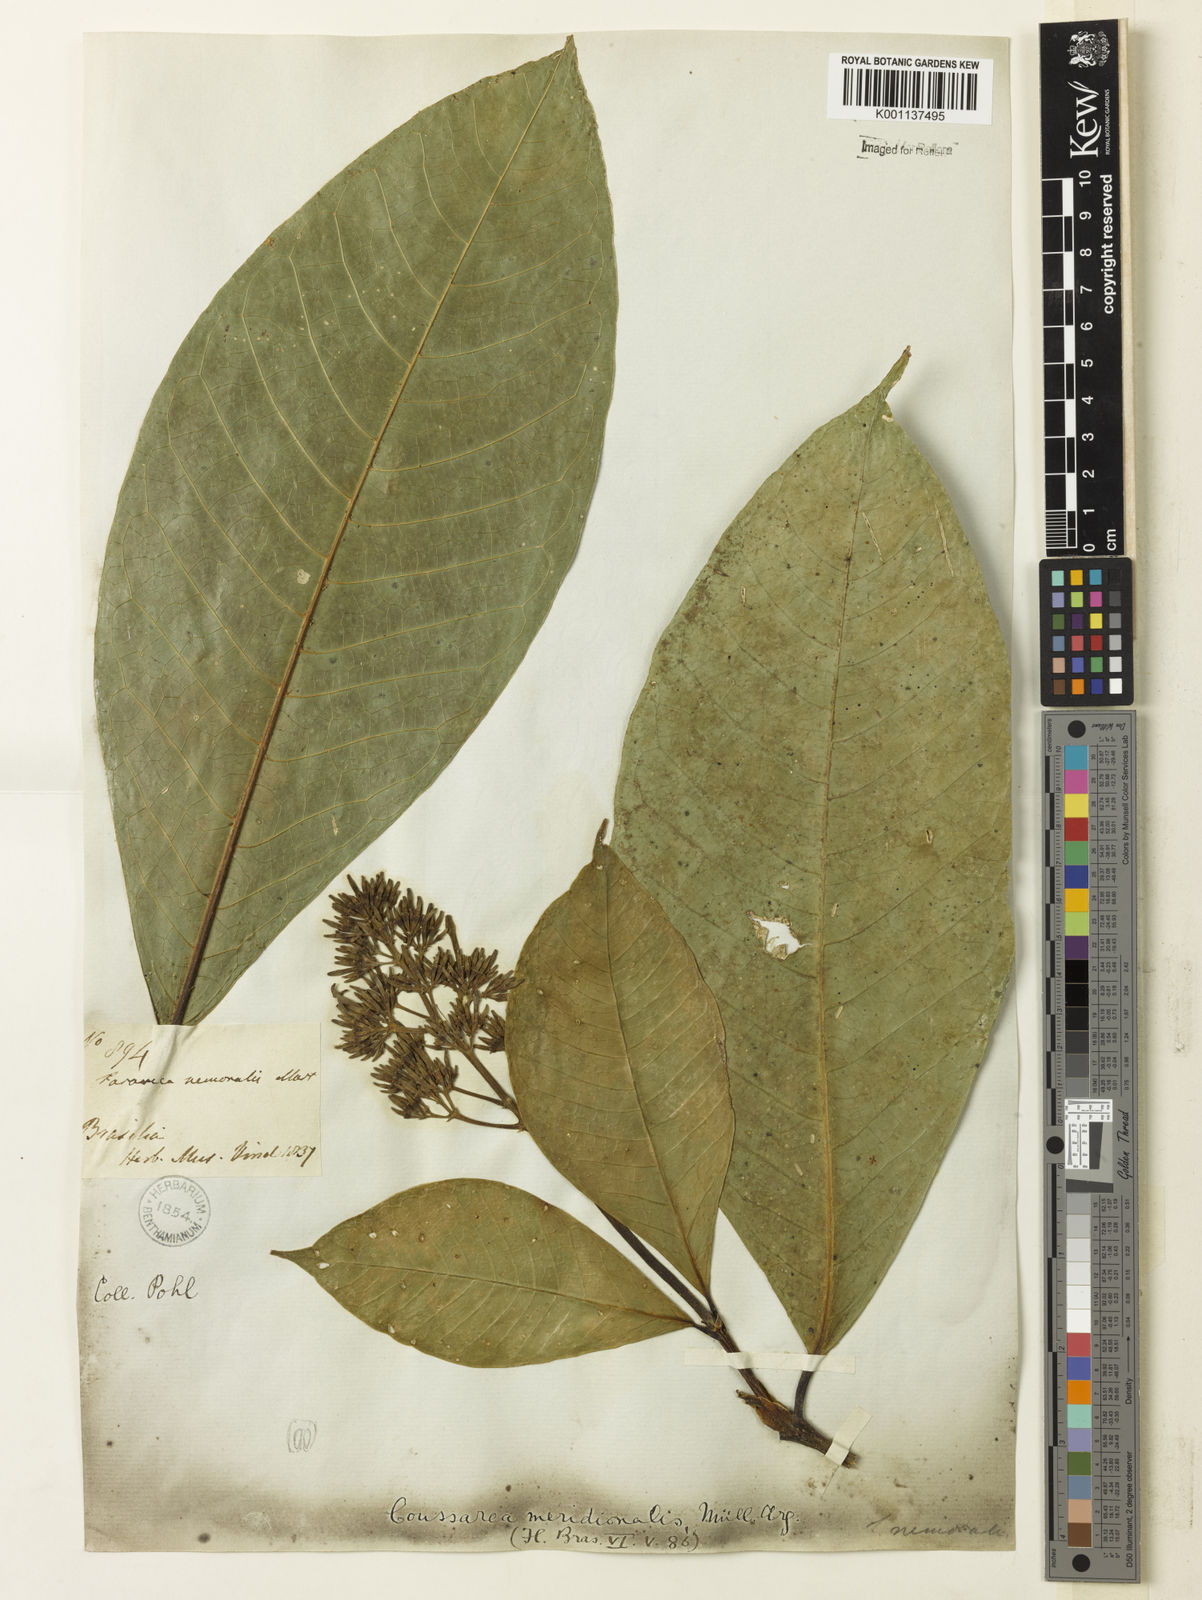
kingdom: Plantae
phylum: Tracheophyta
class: Magnoliopsida
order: Gentianales
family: Rubiaceae
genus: Coussarea
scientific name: Coussarea
